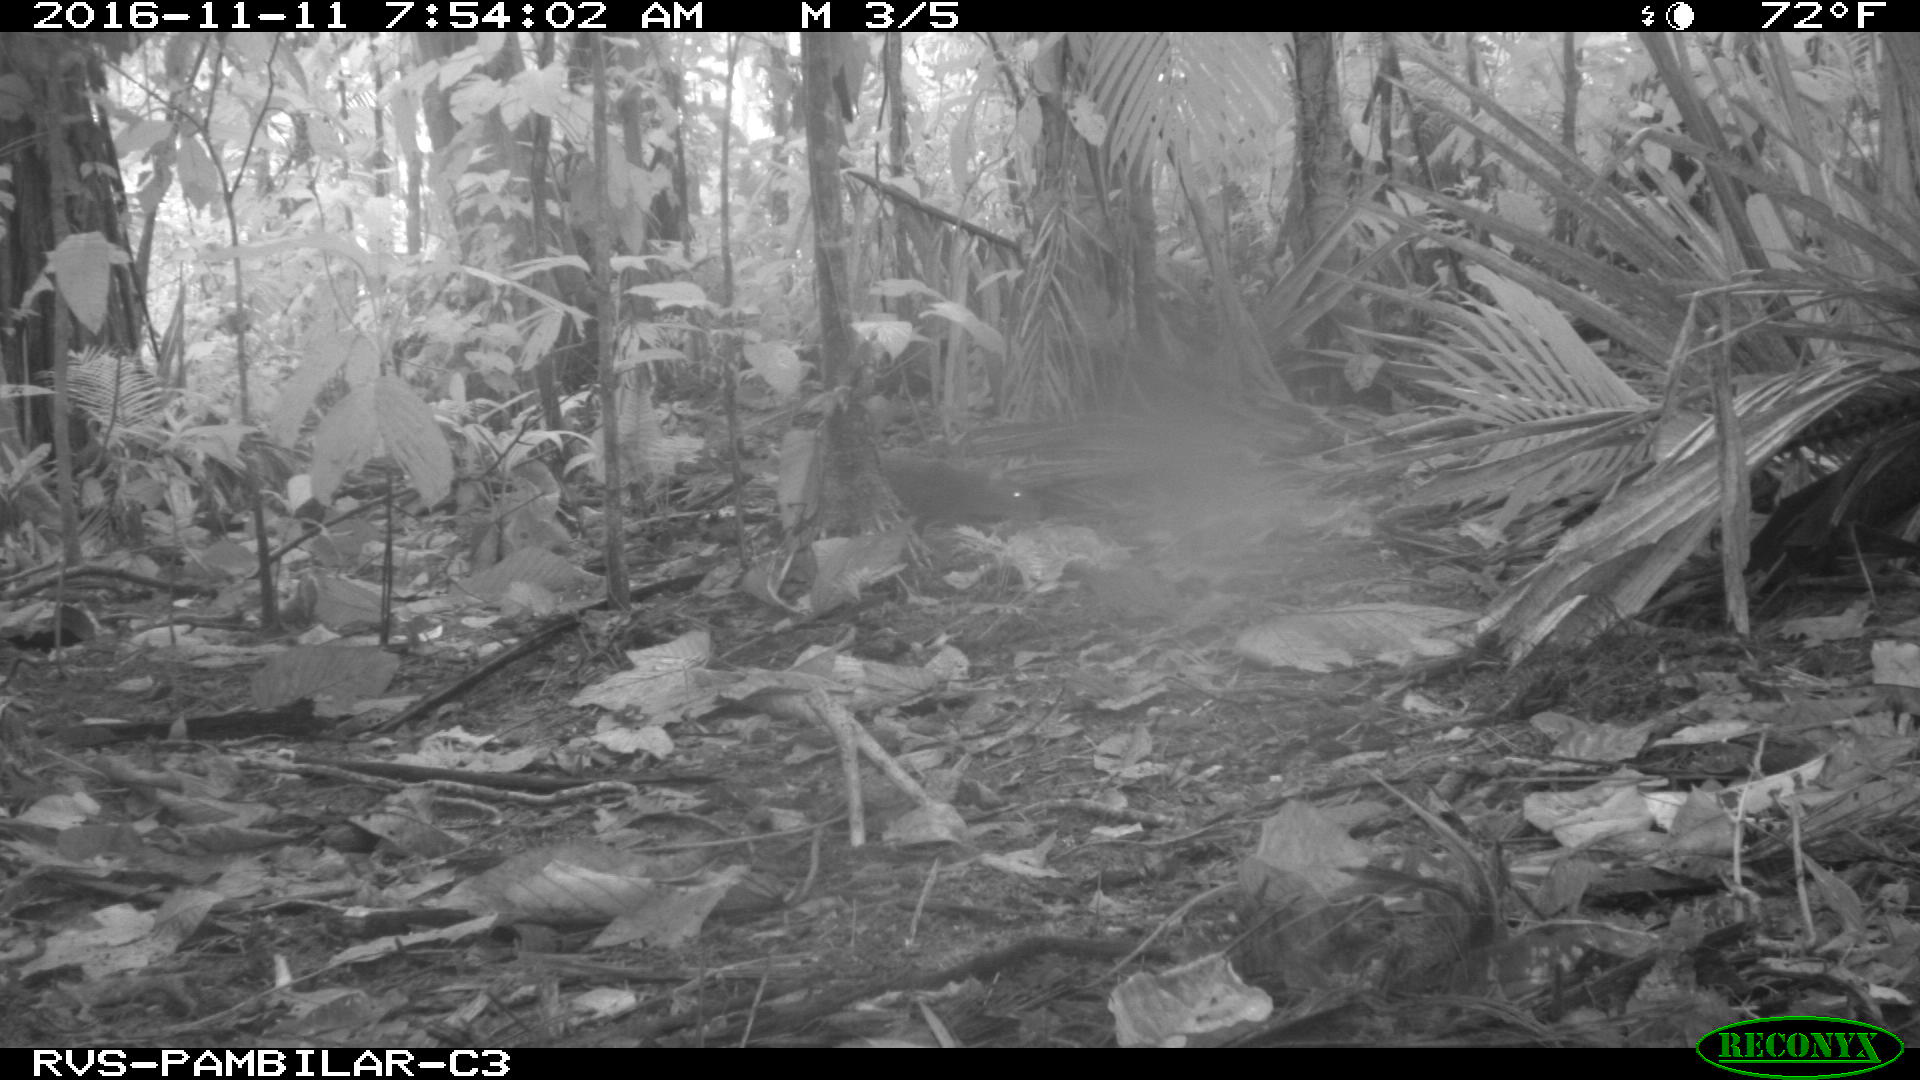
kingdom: Animalia
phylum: Chordata
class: Mammalia
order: Rodentia
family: Dasyproctidae
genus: Dasyprocta
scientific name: Dasyprocta punctata
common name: Central american agouti
